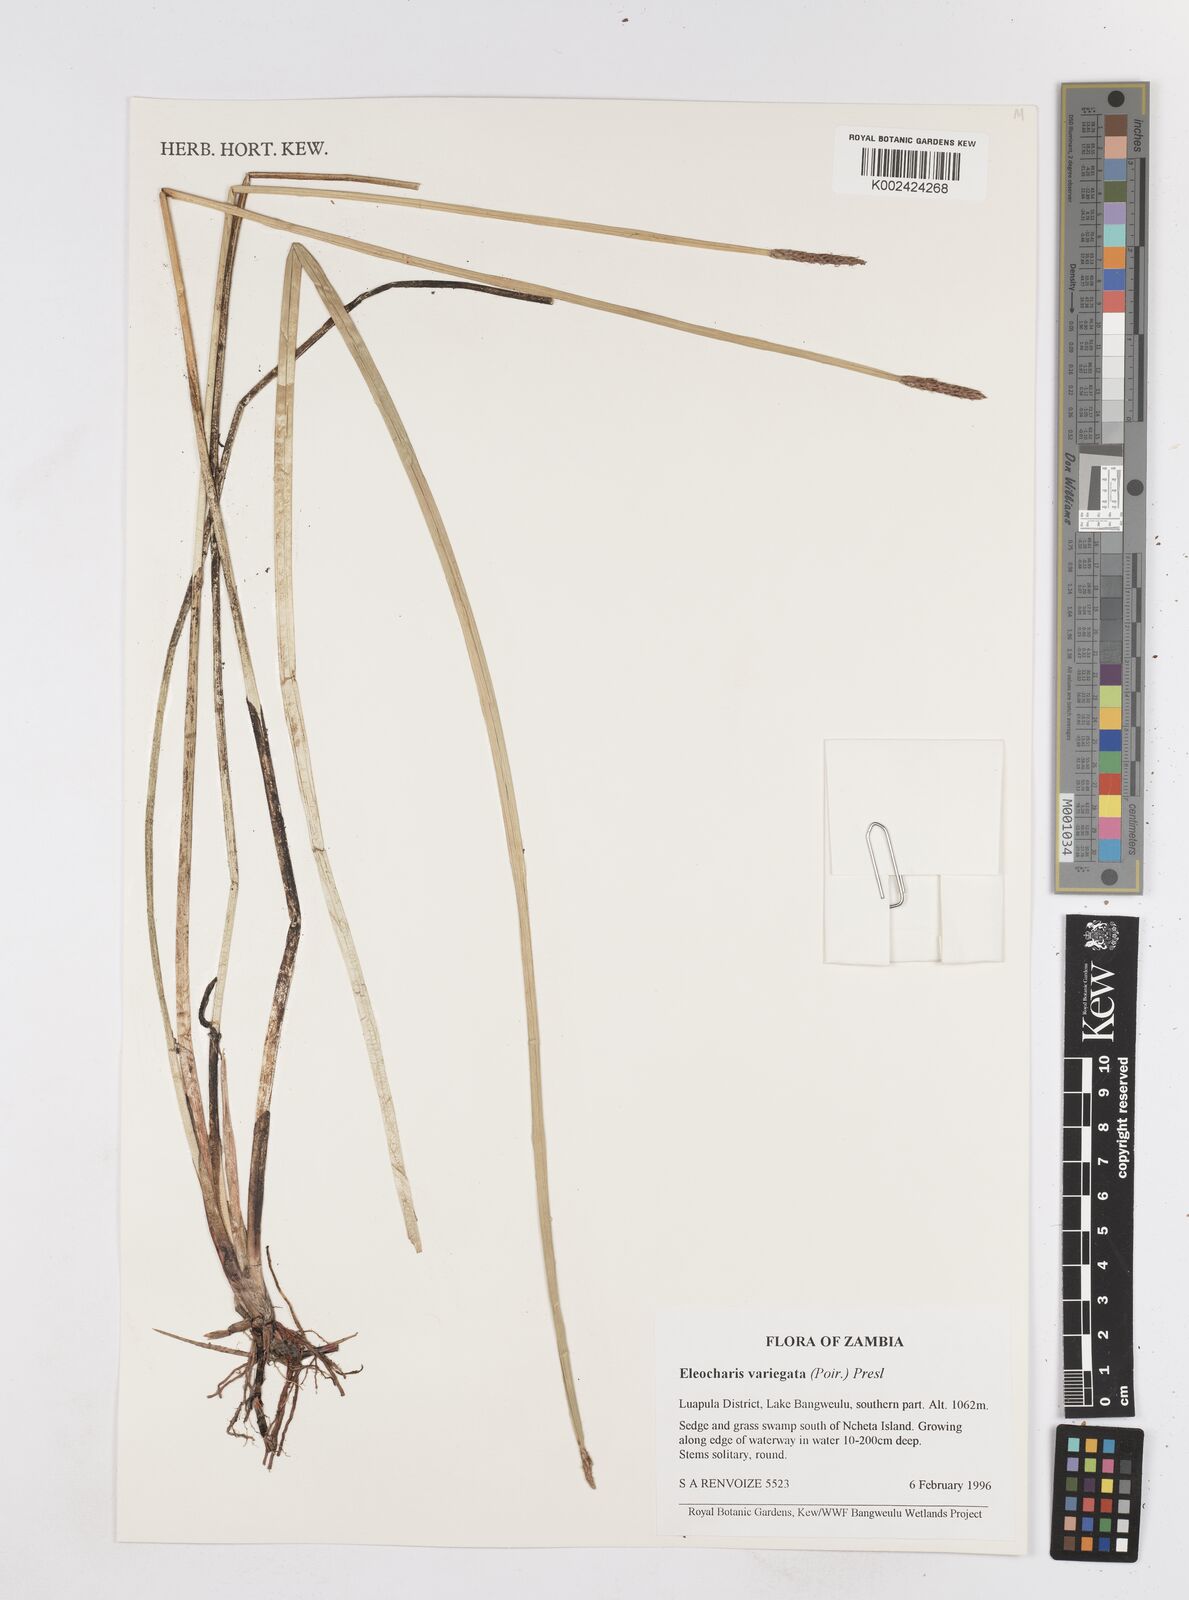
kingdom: Plantae
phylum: Tracheophyta
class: Liliopsida
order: Poales
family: Cyperaceae
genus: Eleocharis
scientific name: Eleocharis variegata
